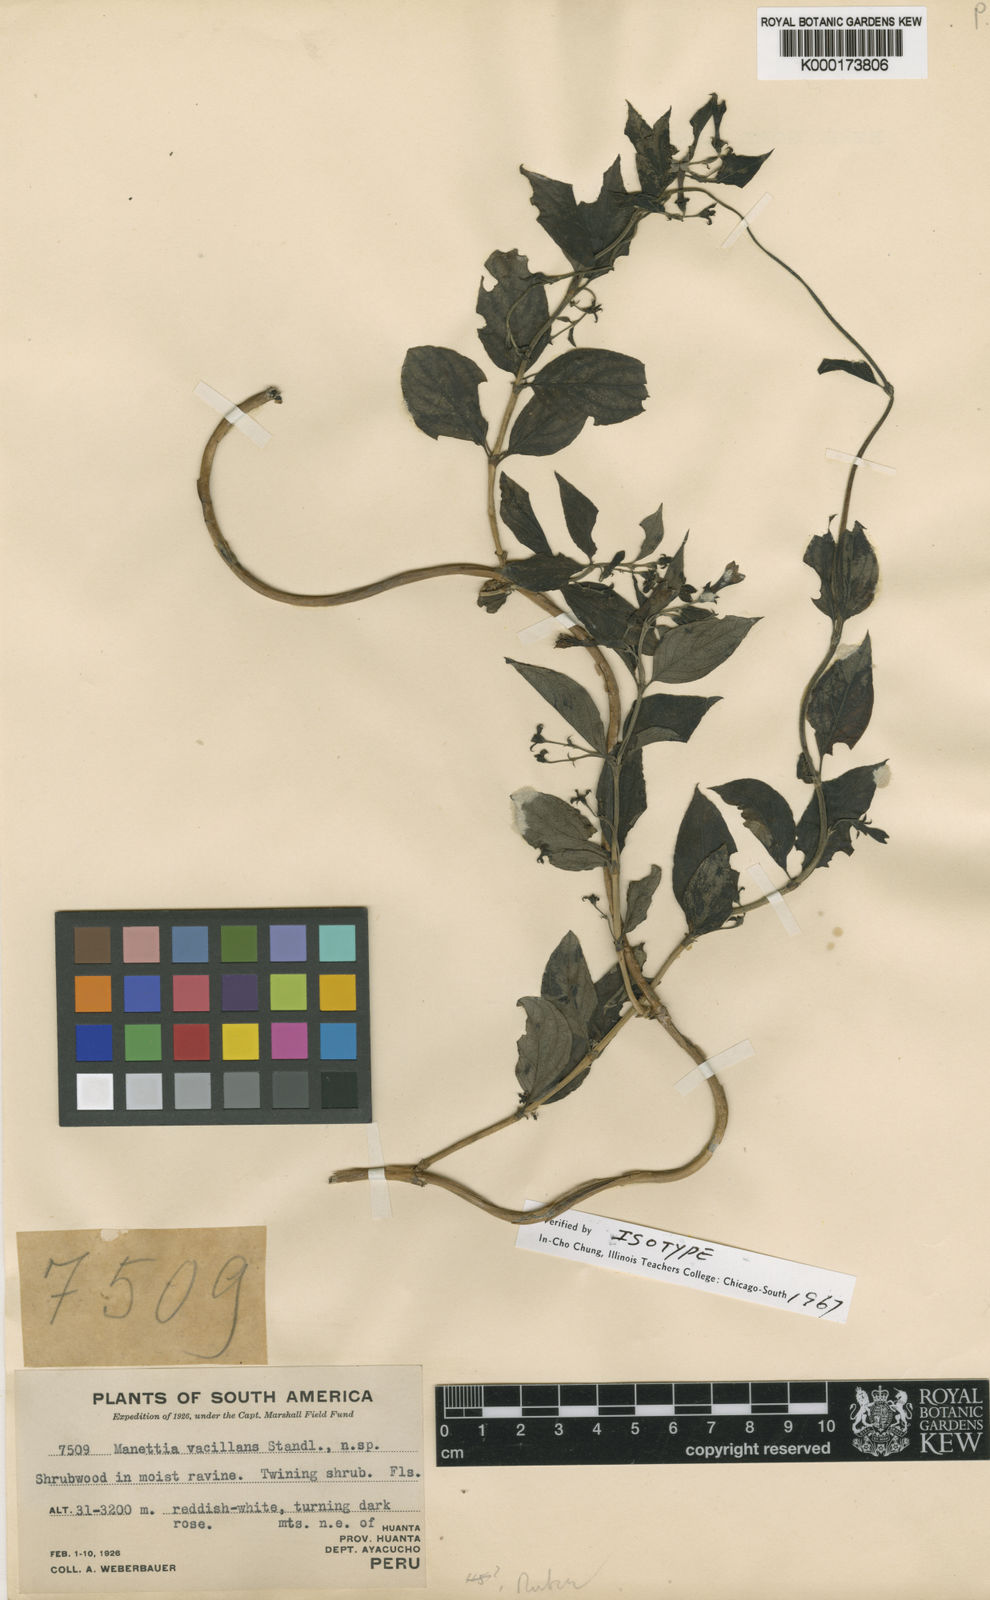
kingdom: Plantae
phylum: Tracheophyta
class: Magnoliopsida
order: Gentianales
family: Rubiaceae
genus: Manettia
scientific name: Manettia vacillans
